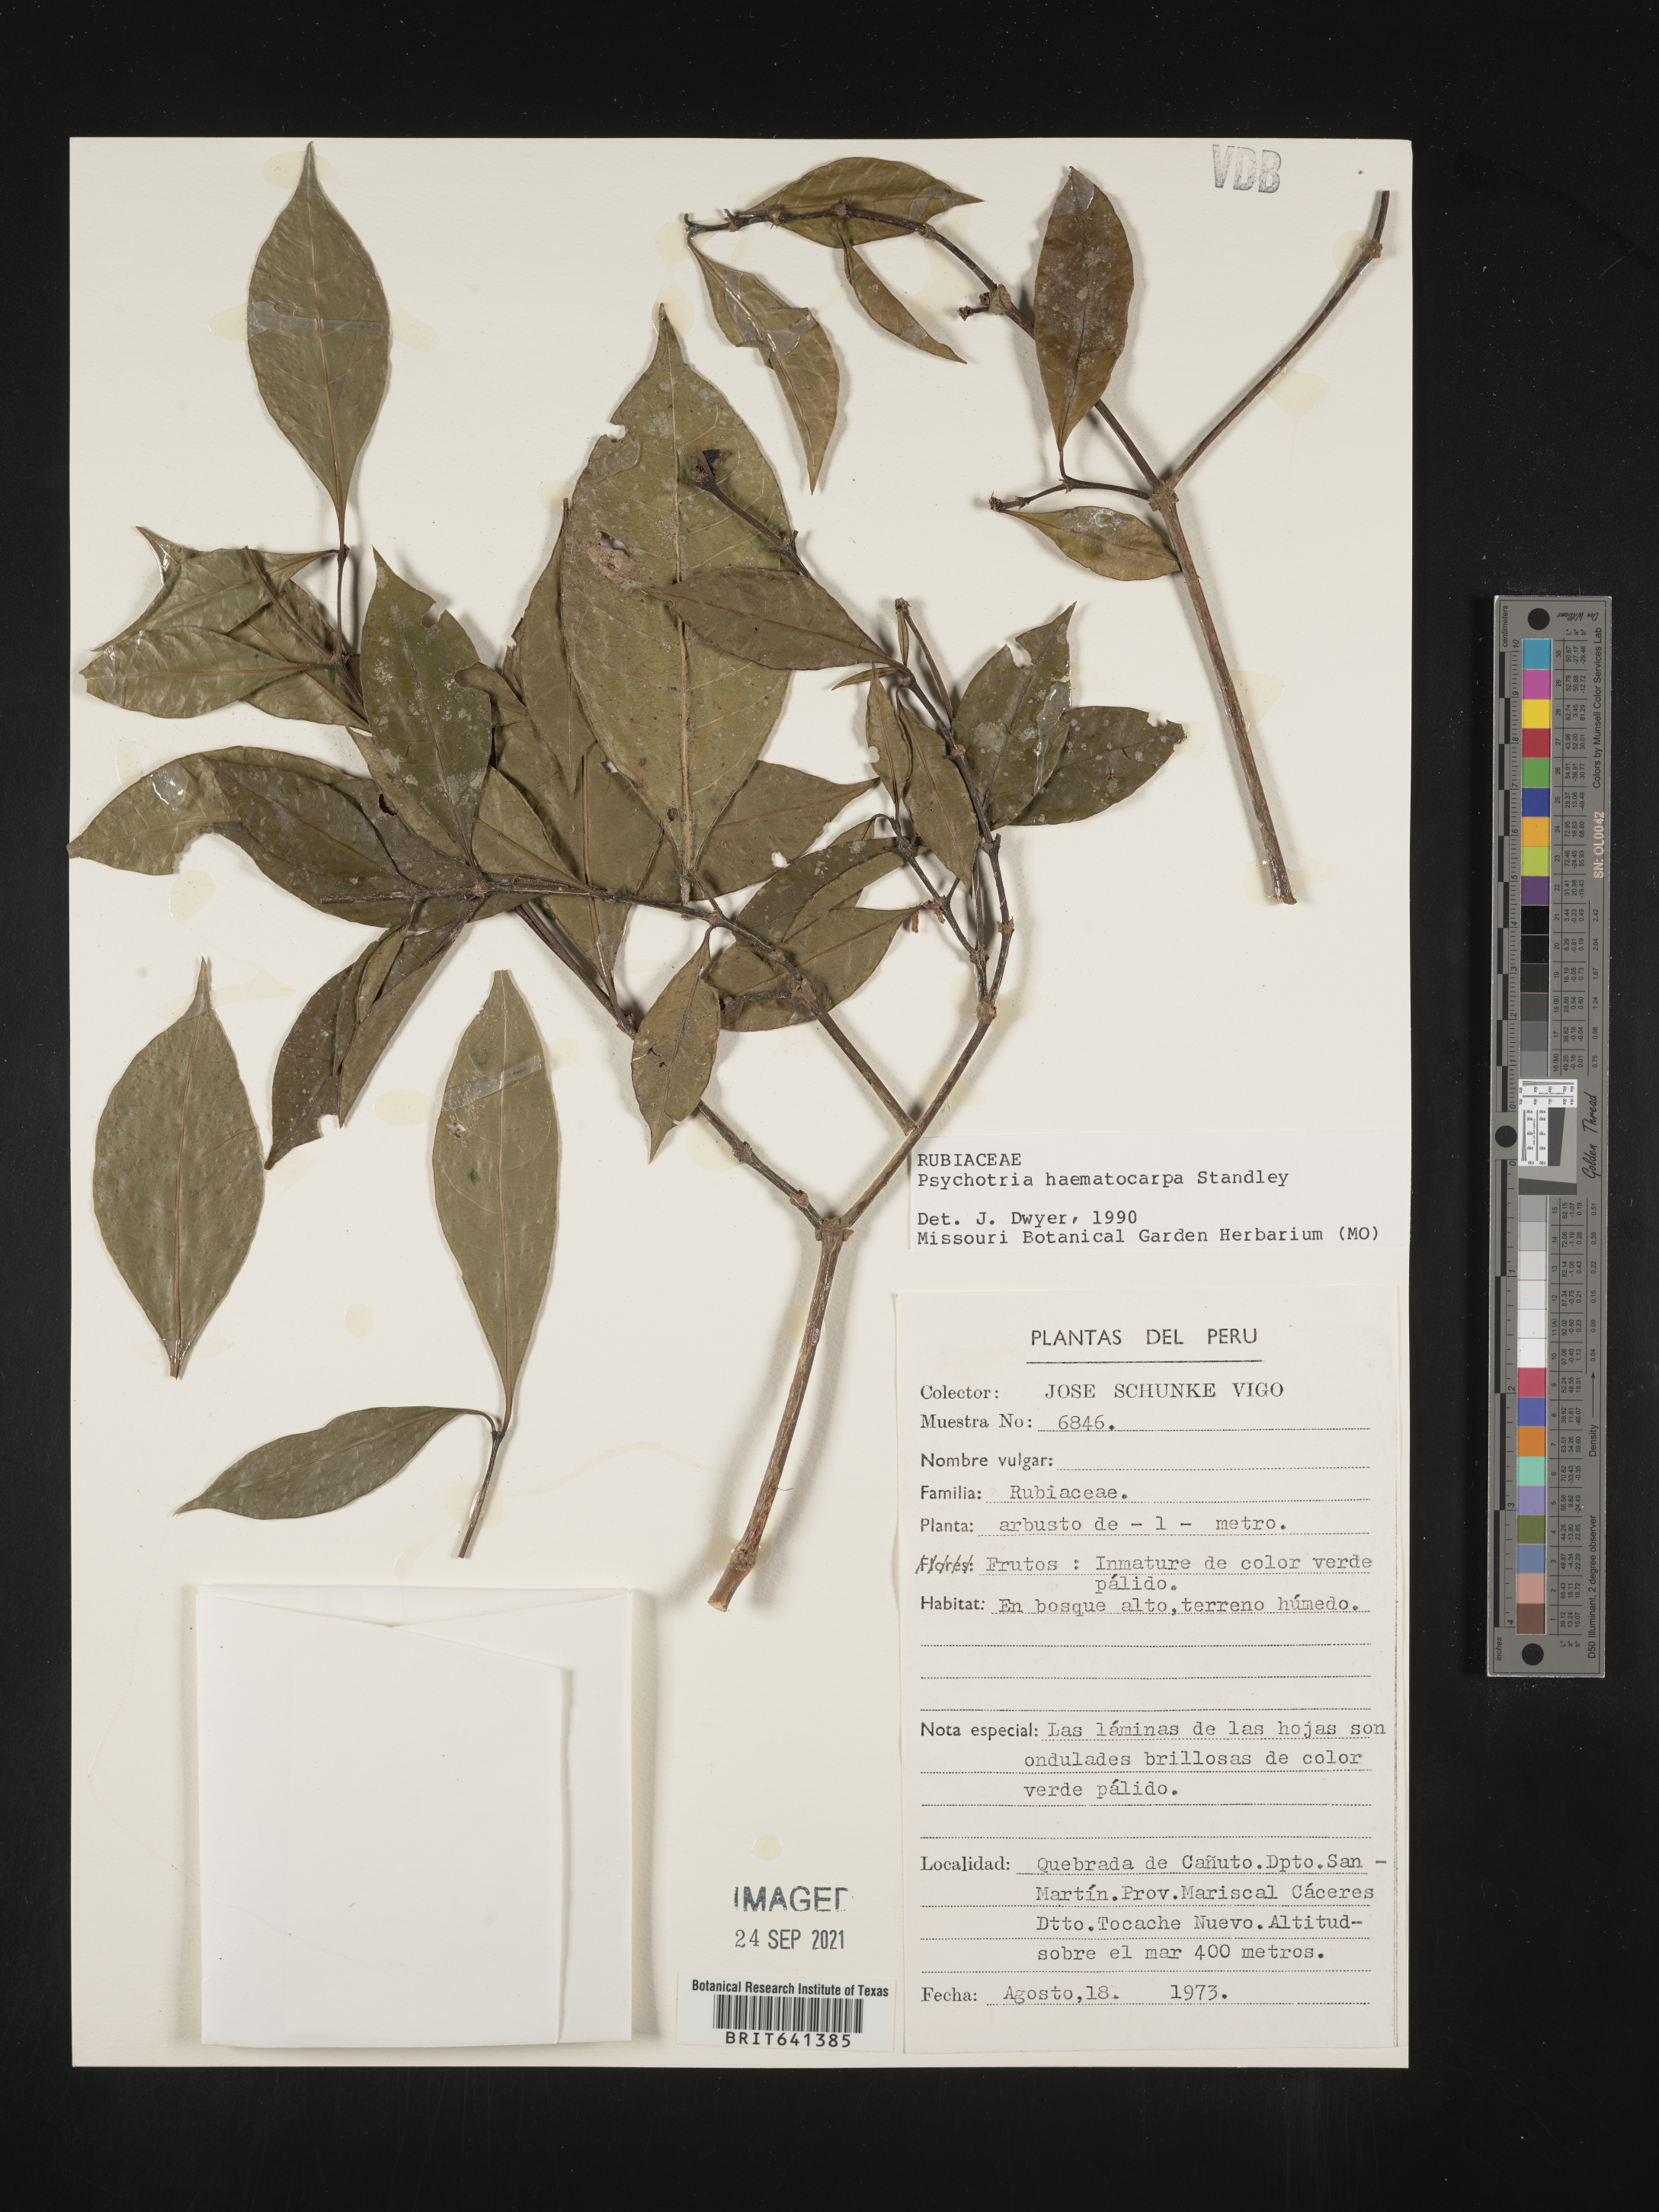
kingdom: Plantae
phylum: Tracheophyta
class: Magnoliopsida
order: Gentianales
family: Rubiaceae
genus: Psychotria
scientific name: Psychotria
